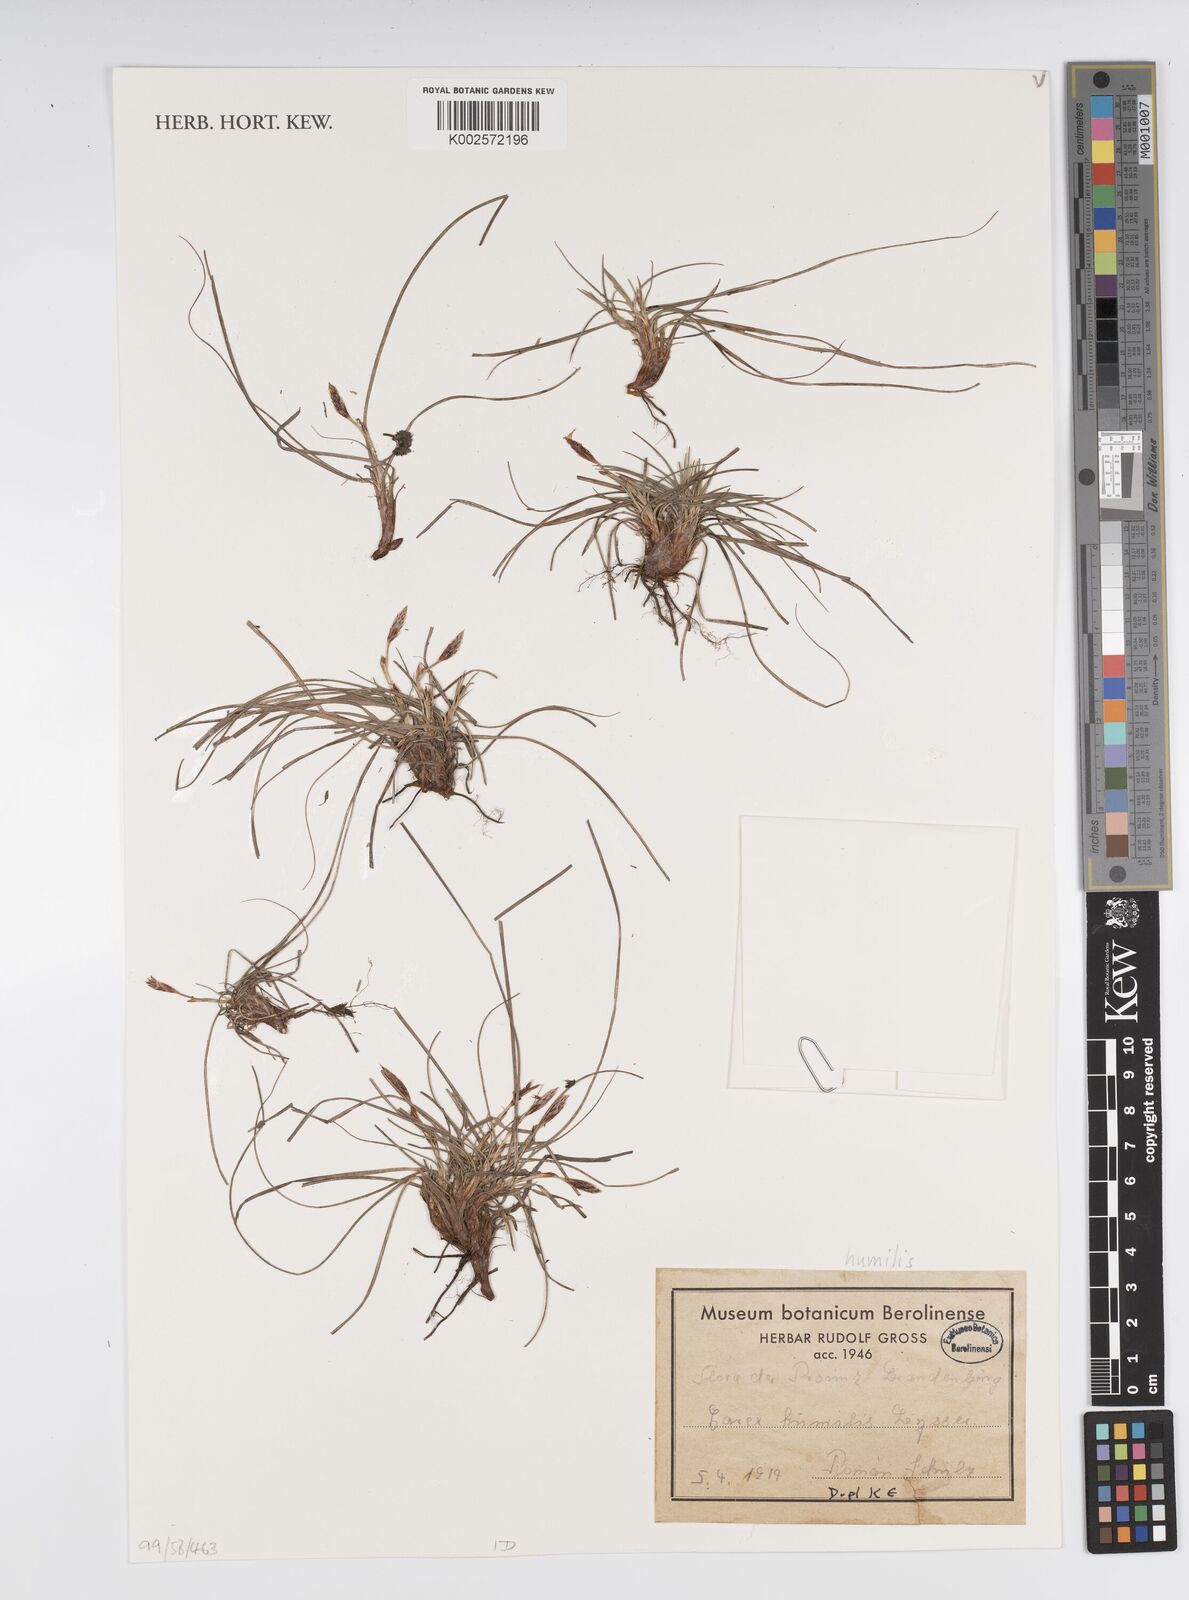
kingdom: Plantae
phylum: Tracheophyta
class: Liliopsida
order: Poales
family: Cyperaceae
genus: Carex
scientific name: Carex humilis
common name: Dwarf sedge
